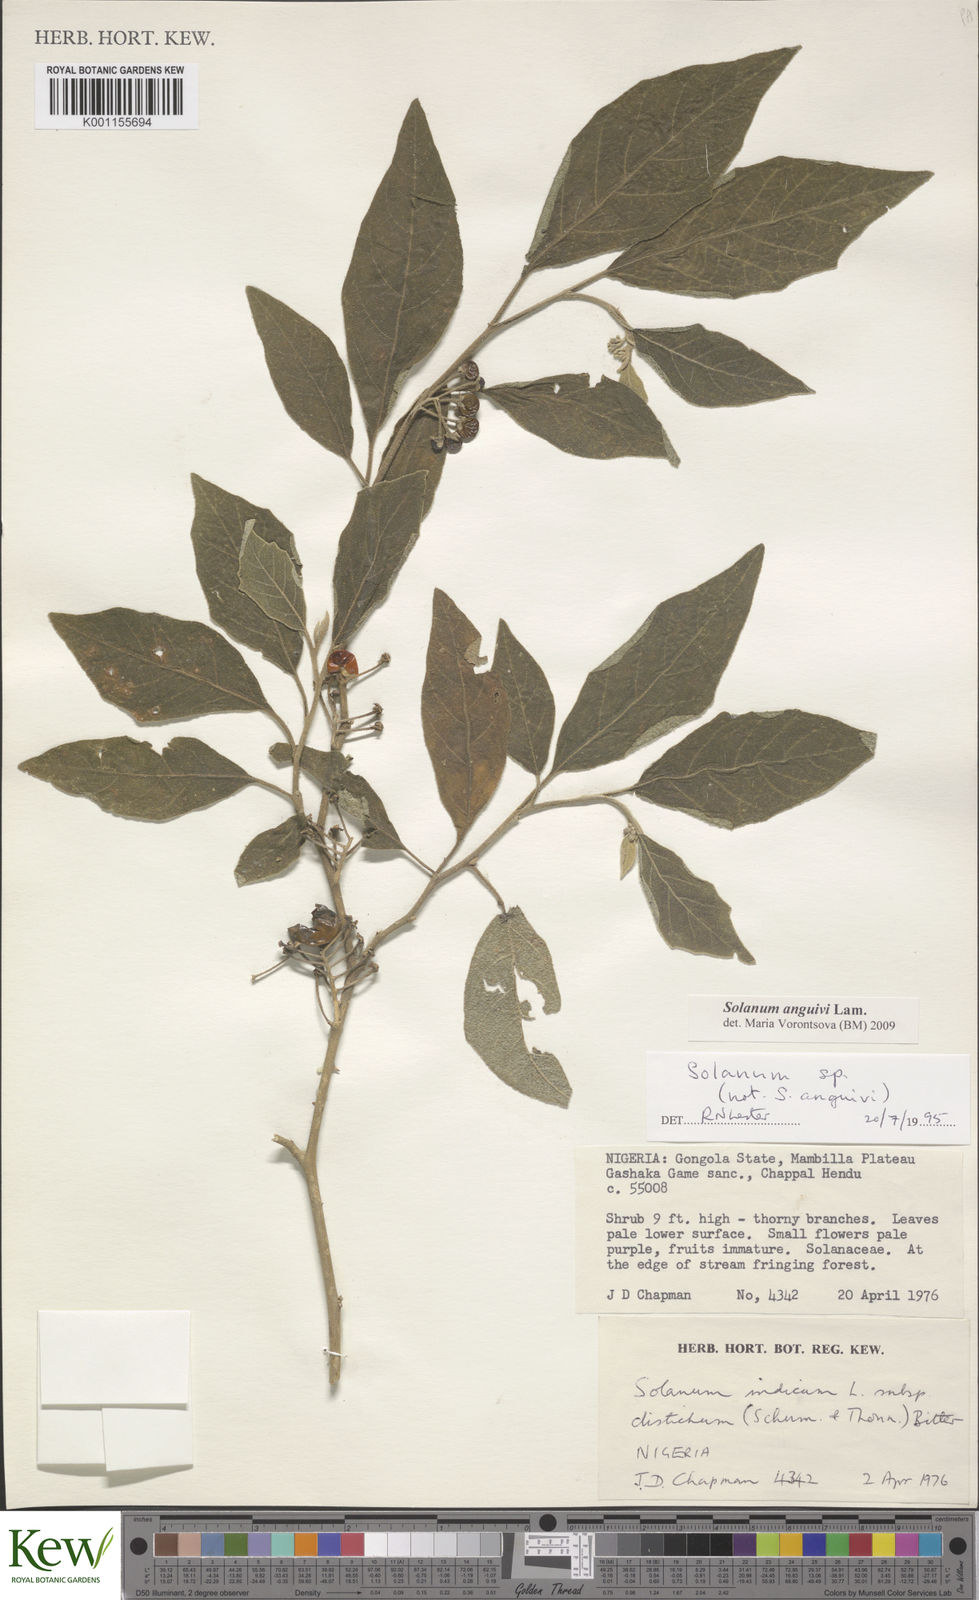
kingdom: Plantae
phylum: Tracheophyta
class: Magnoliopsida
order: Solanales
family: Solanaceae
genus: Solanum
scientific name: Solanum anguivi
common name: Forest bitterberry
